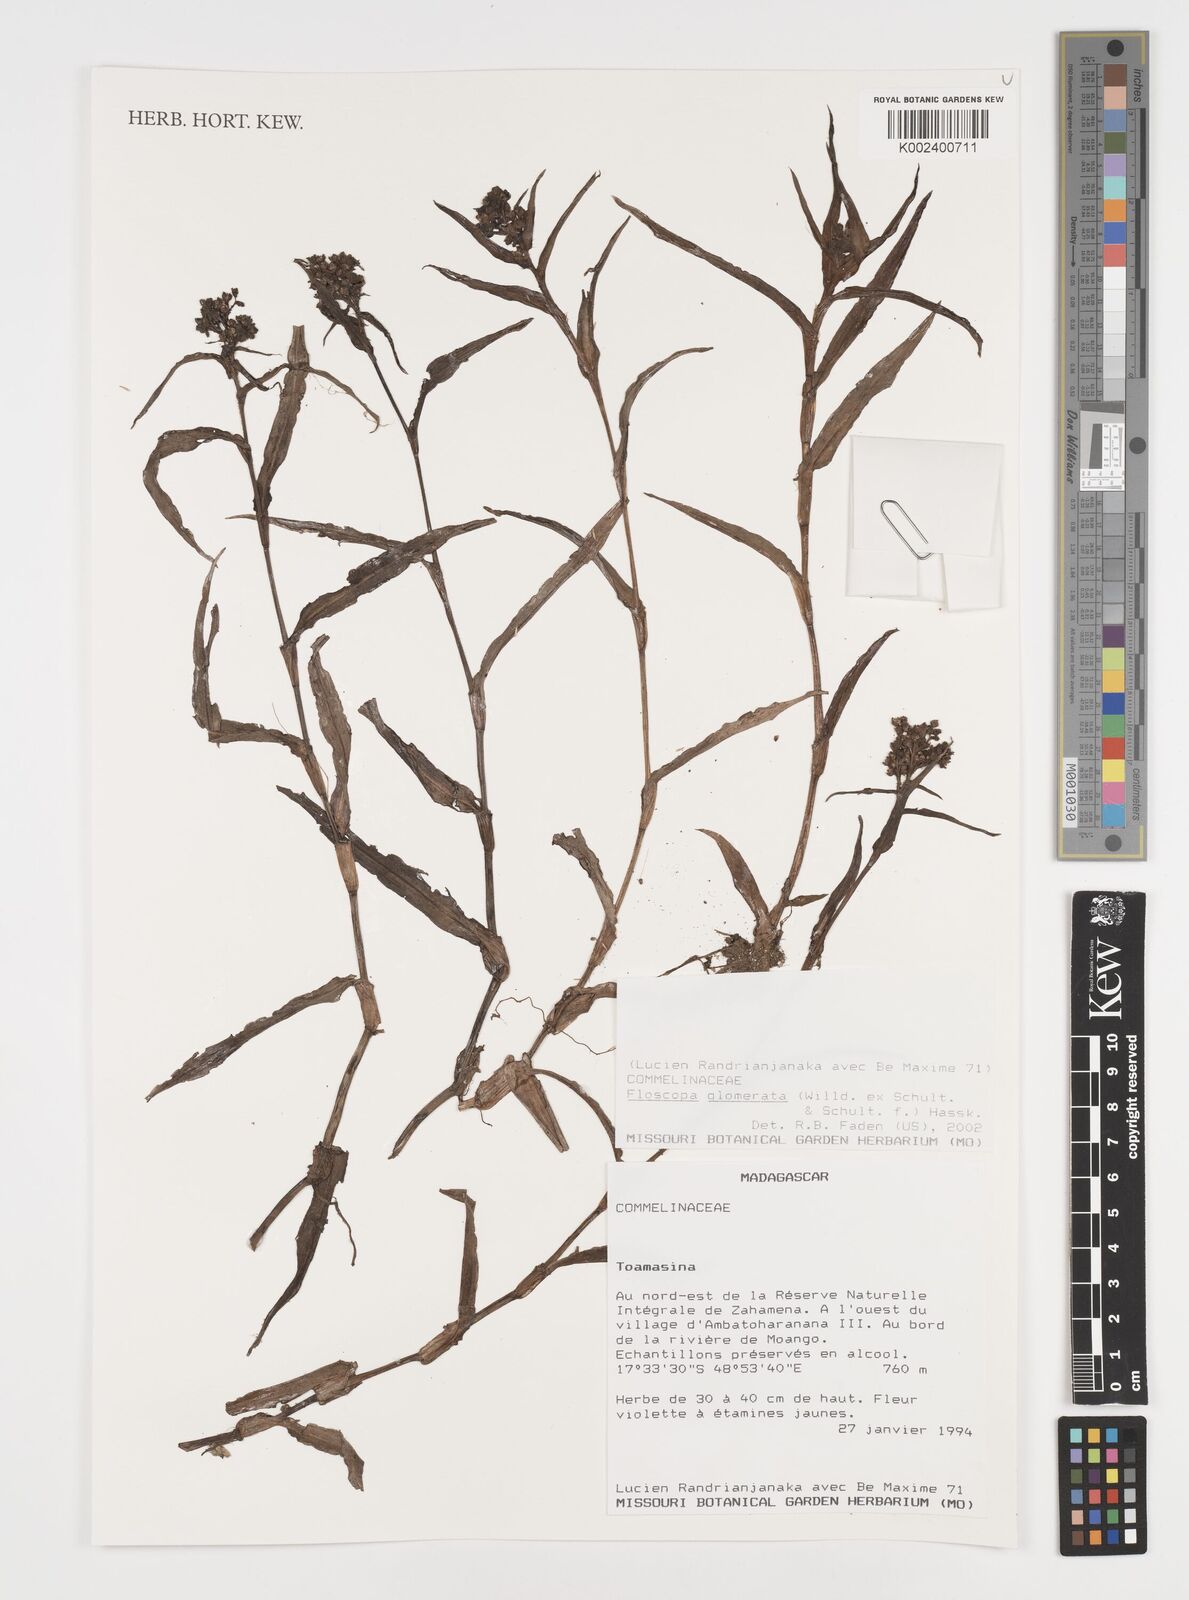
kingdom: Plantae
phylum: Tracheophyta
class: Liliopsida
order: Commelinales
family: Commelinaceae
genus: Floscopa
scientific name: Floscopa glomerata
